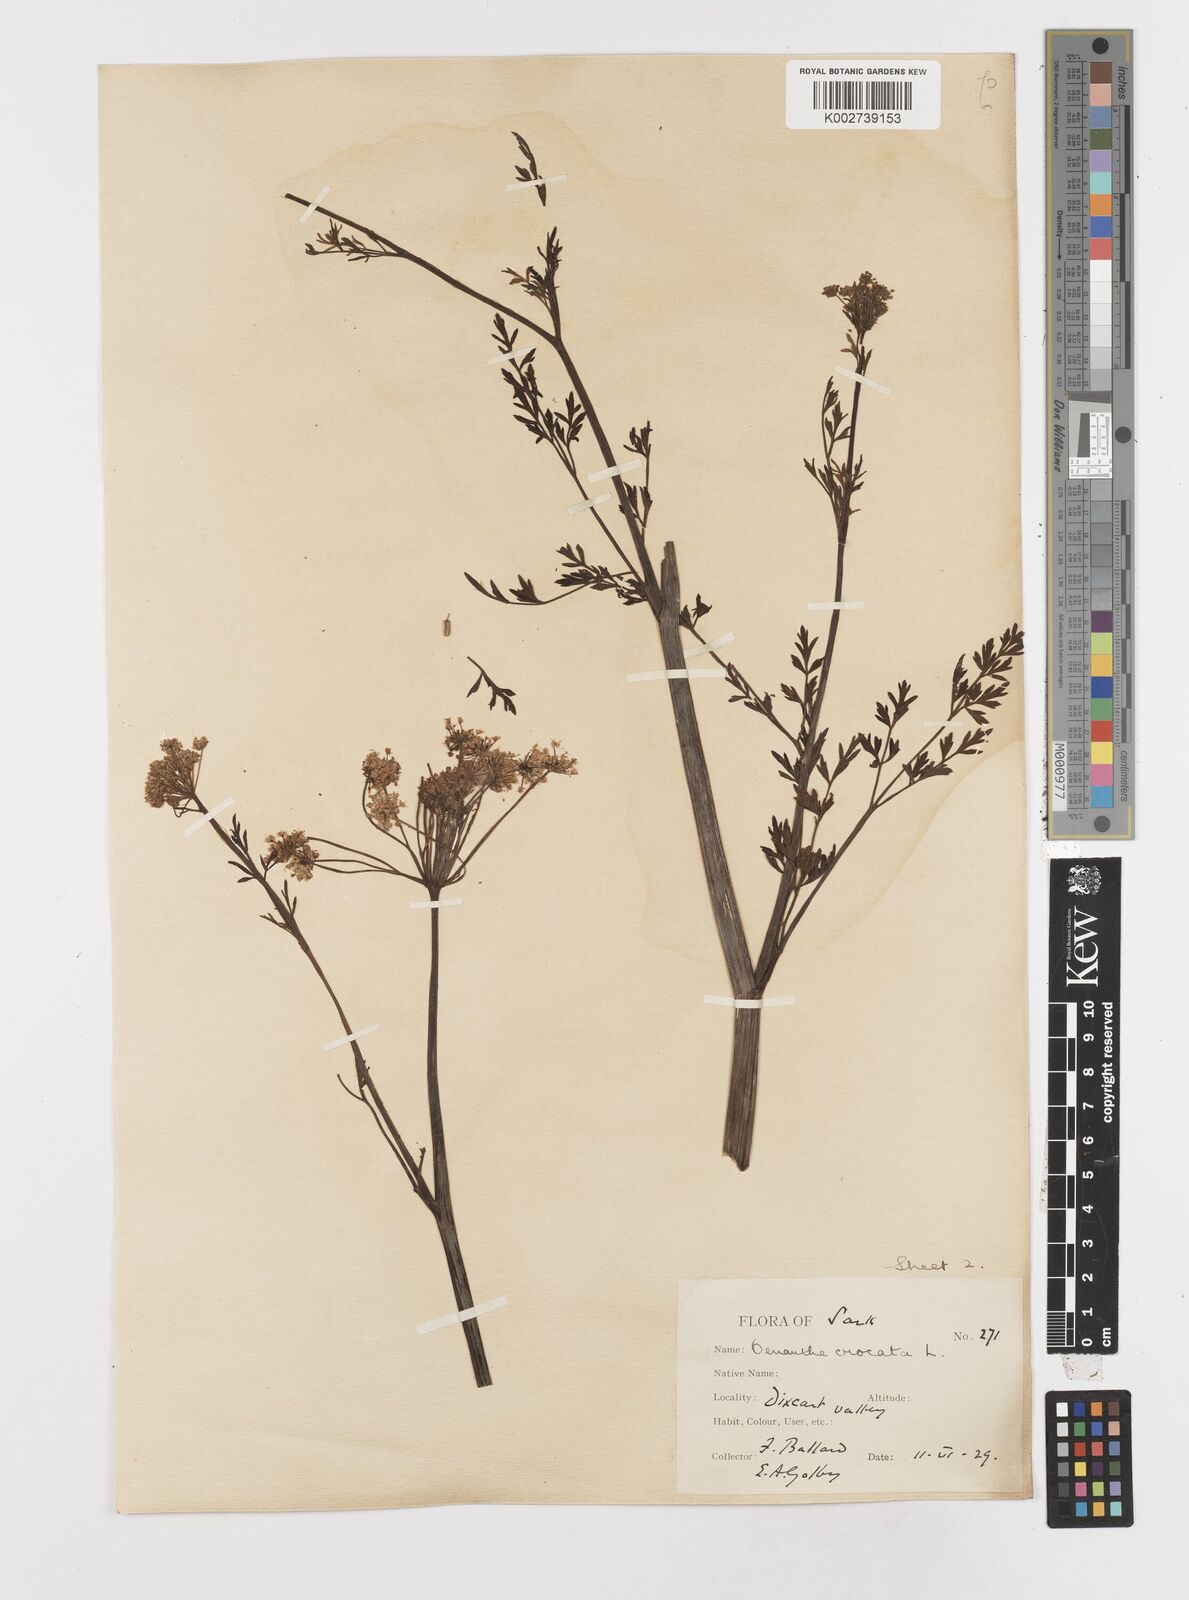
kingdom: Plantae
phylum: Tracheophyta
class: Magnoliopsida
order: Apiales
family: Apiaceae
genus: Oenanthe
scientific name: Oenanthe crocata
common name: Hemlock water-dropwort
